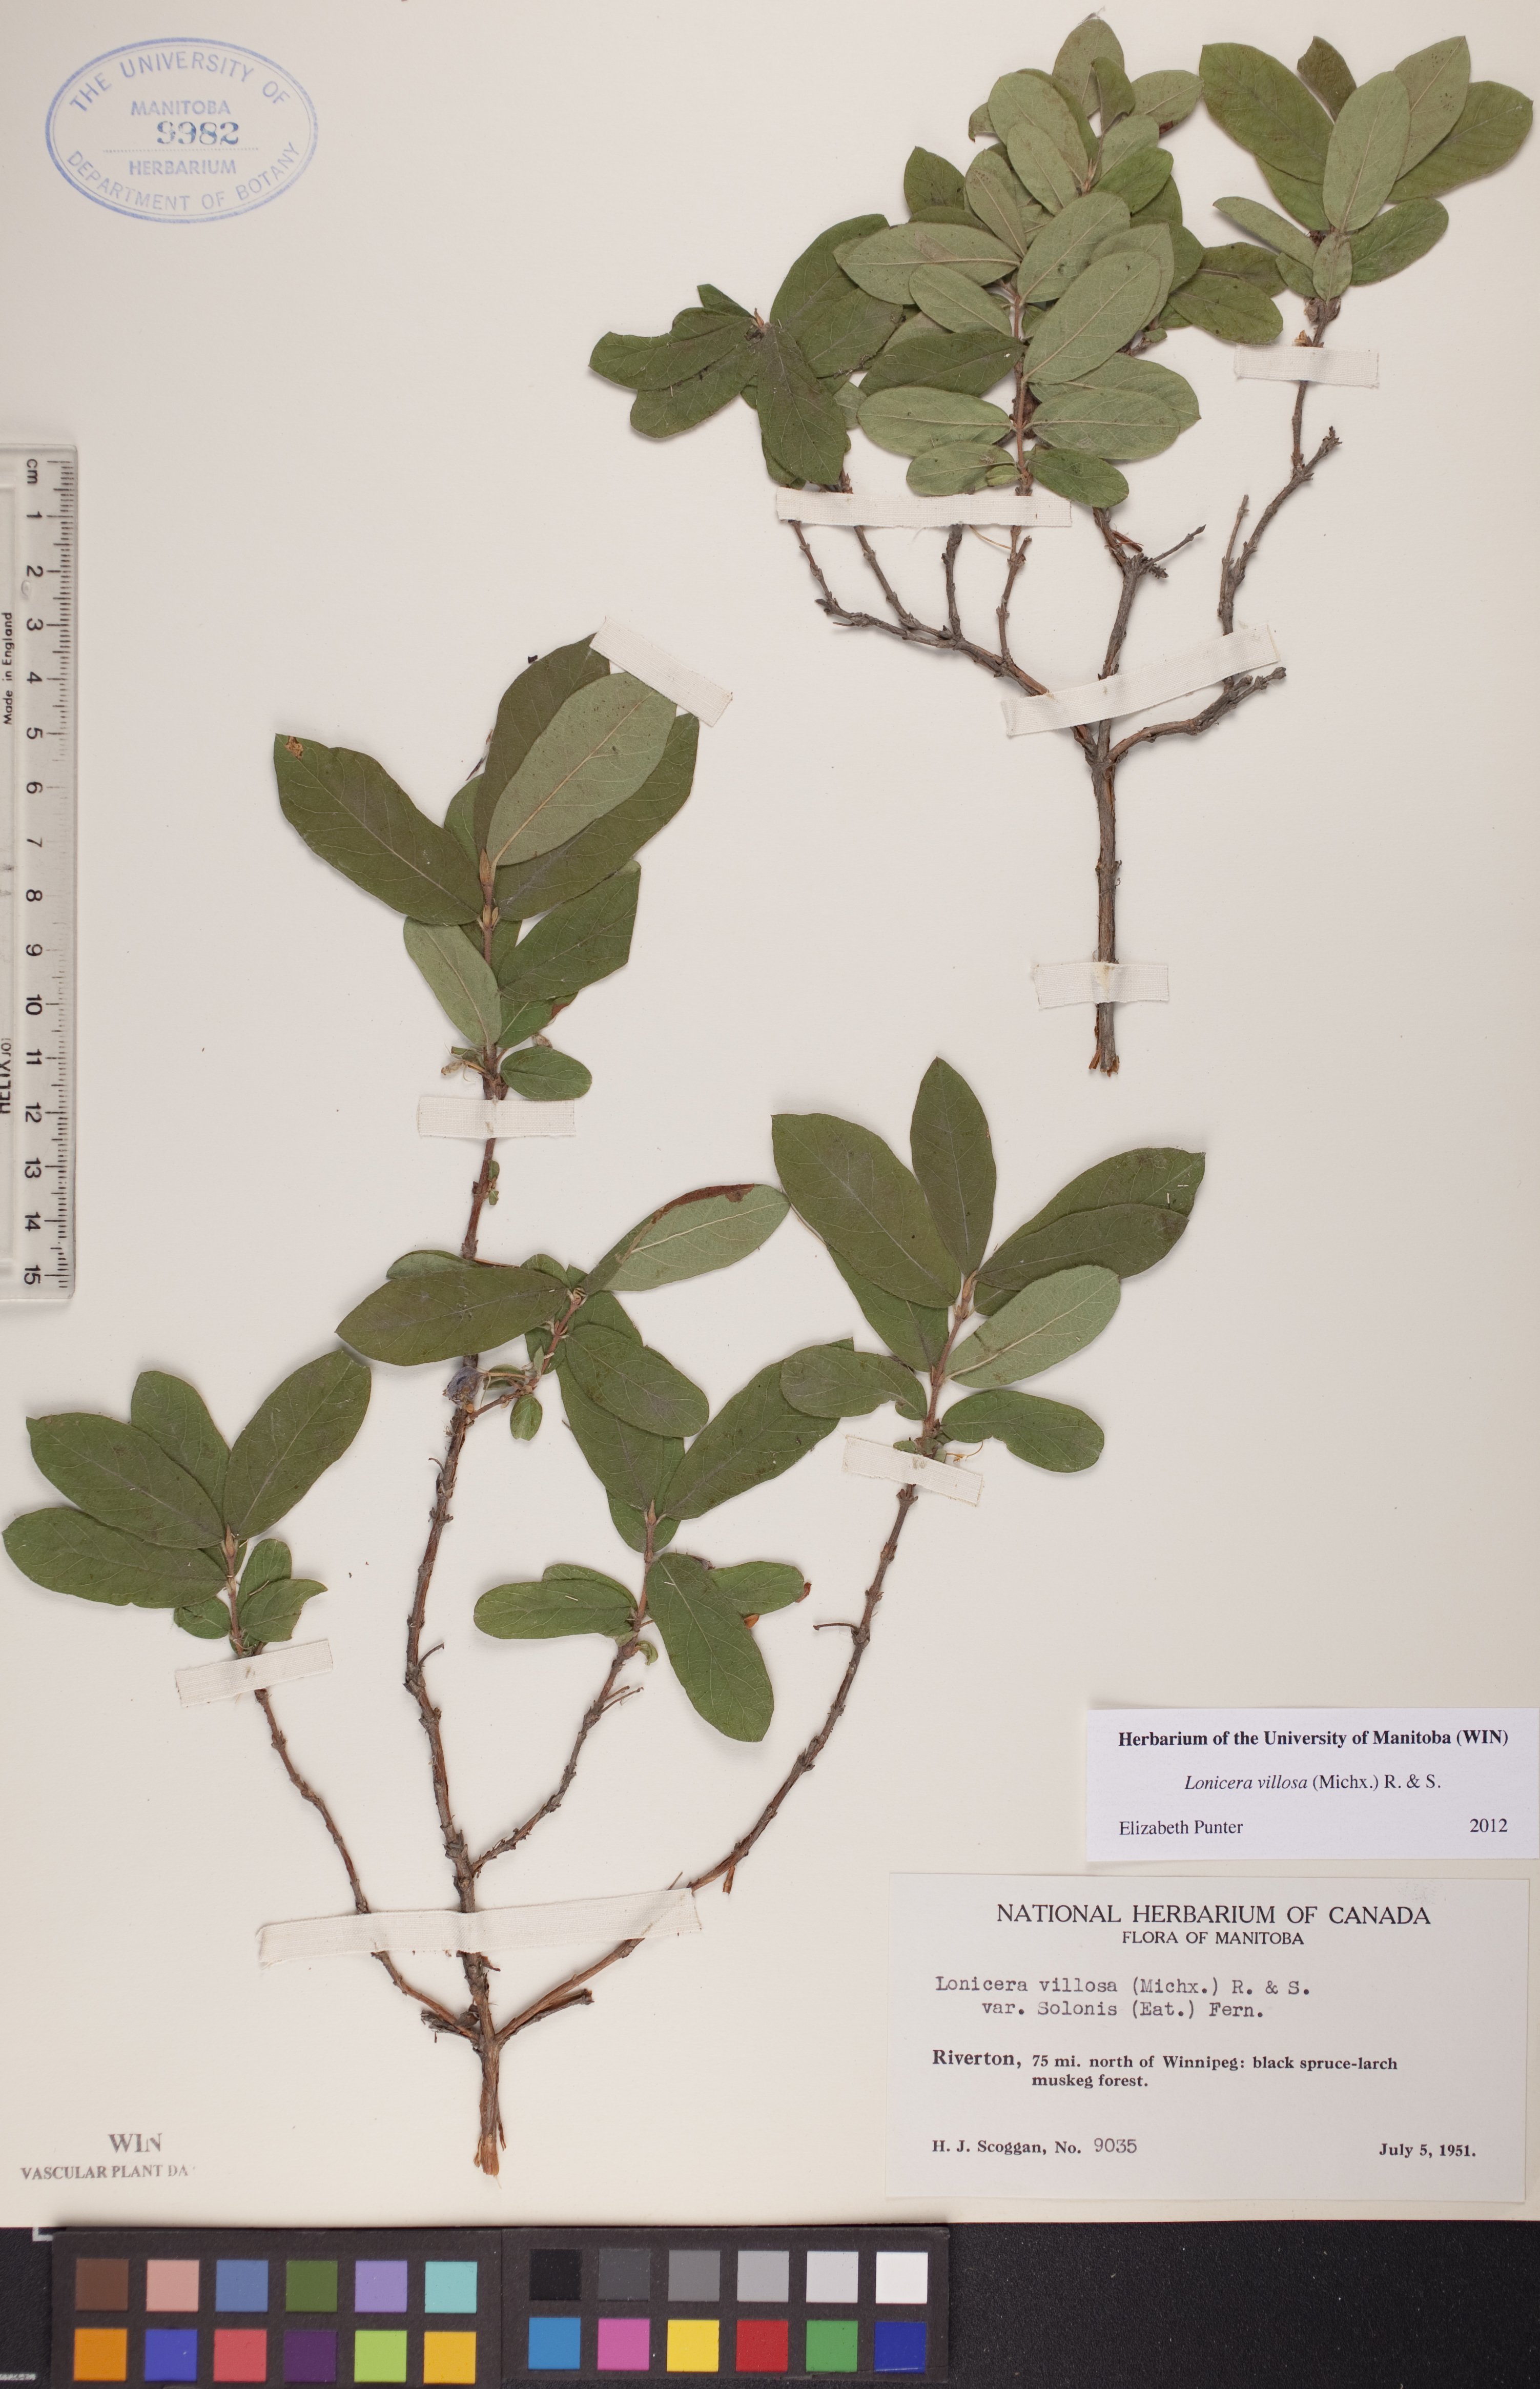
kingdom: Plantae
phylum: Tracheophyta
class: Magnoliopsida
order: Dipsacales
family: Caprifoliaceae
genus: Lonicera
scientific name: Lonicera villosa
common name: Mountain fly-honeysuckle
